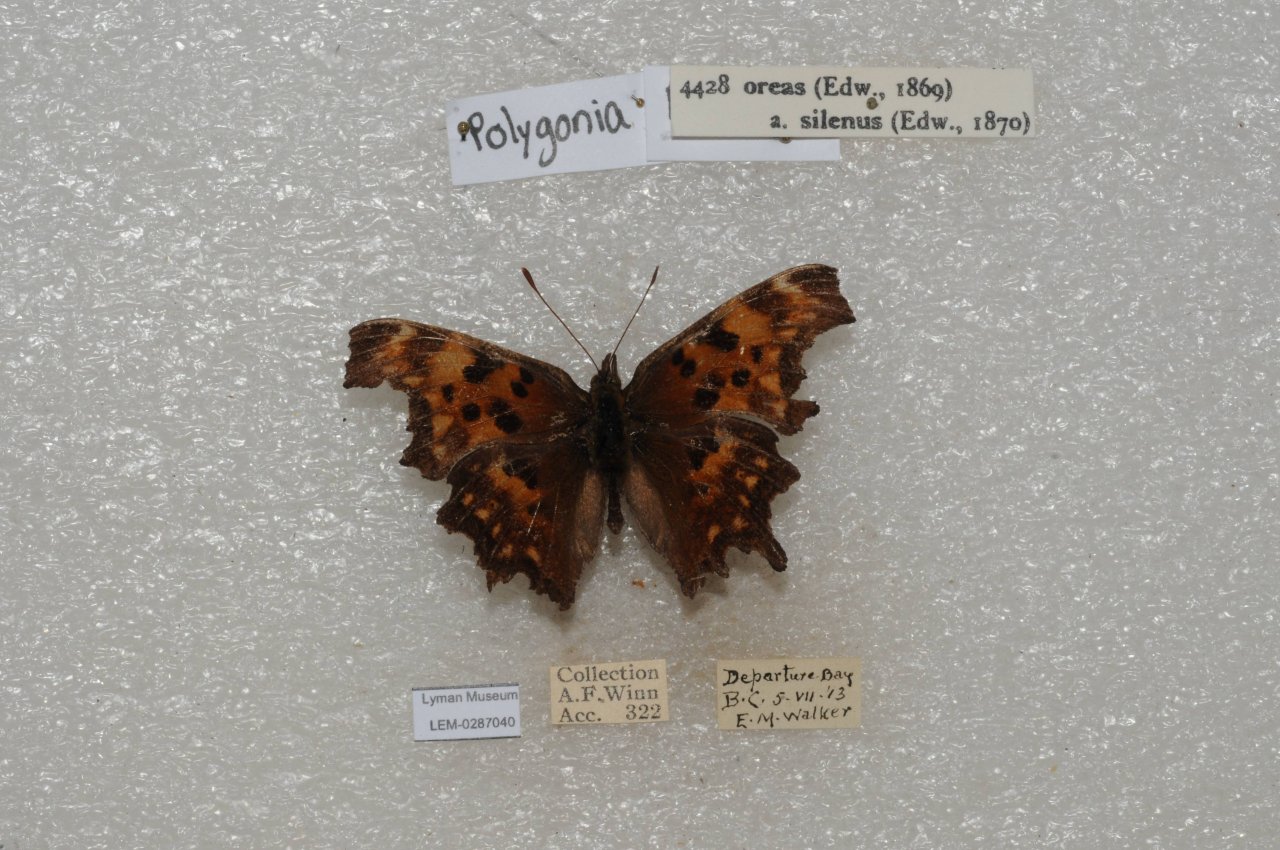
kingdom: Animalia
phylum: Arthropoda
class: Insecta
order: Lepidoptera
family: Nymphalidae
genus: Polygonia
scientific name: Polygonia oreas
